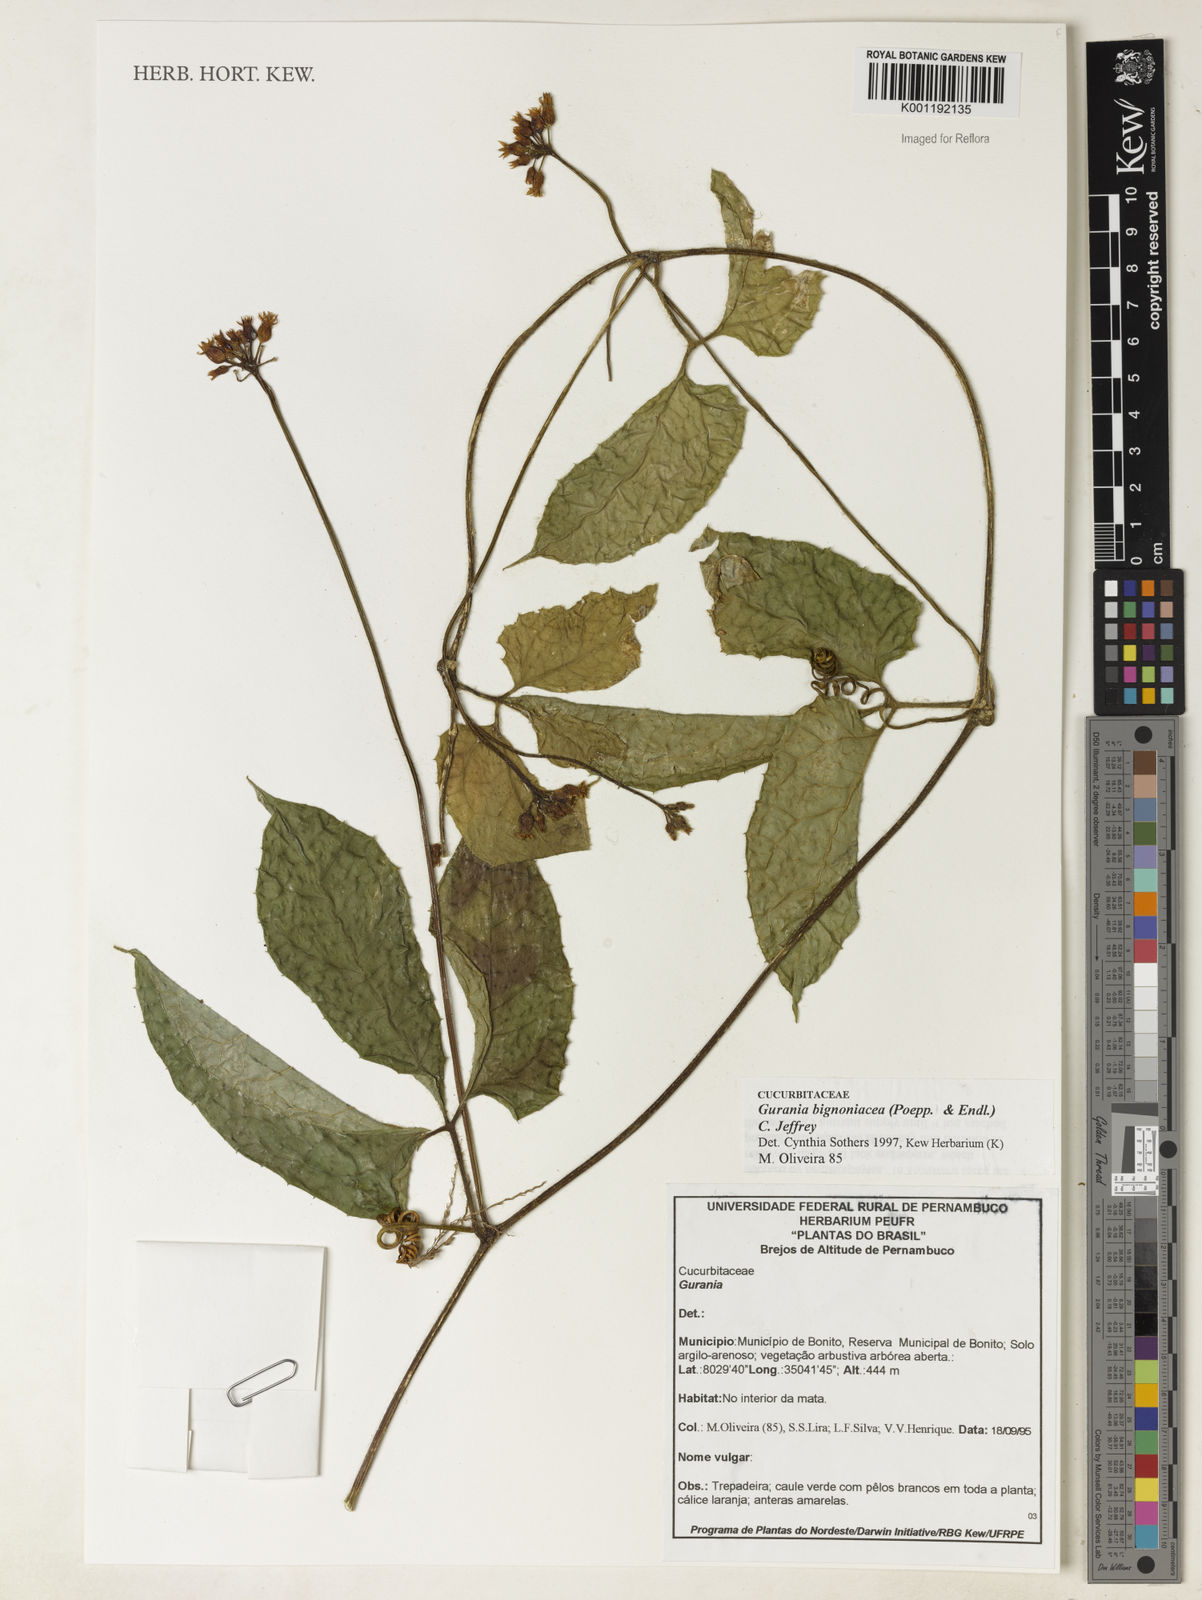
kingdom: Plantae
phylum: Tracheophyta
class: Magnoliopsida
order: Cucurbitales
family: Cucurbitaceae
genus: Gurania
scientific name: Gurania bignoniacea
